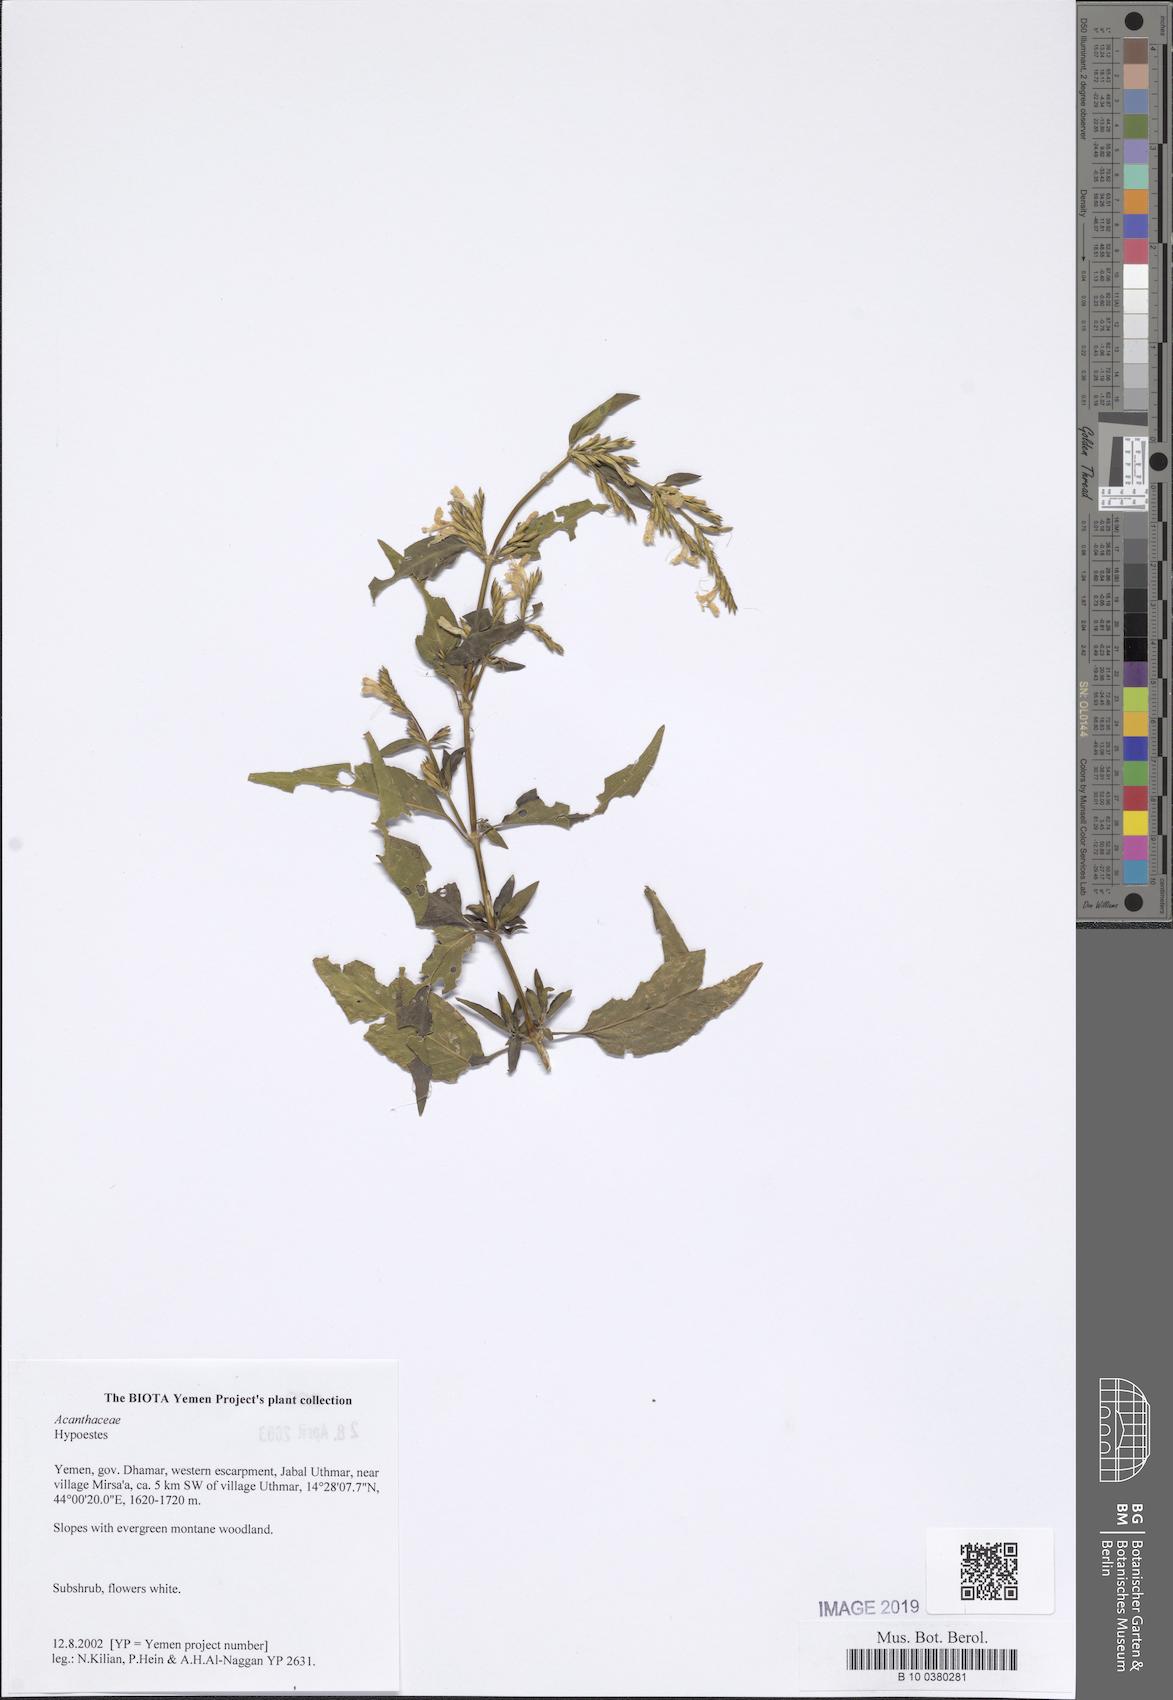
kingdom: Plantae
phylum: Tracheophyta
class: Magnoliopsida
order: Lamiales
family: Acanthaceae
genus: Hypoestes
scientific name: Hypoestes
